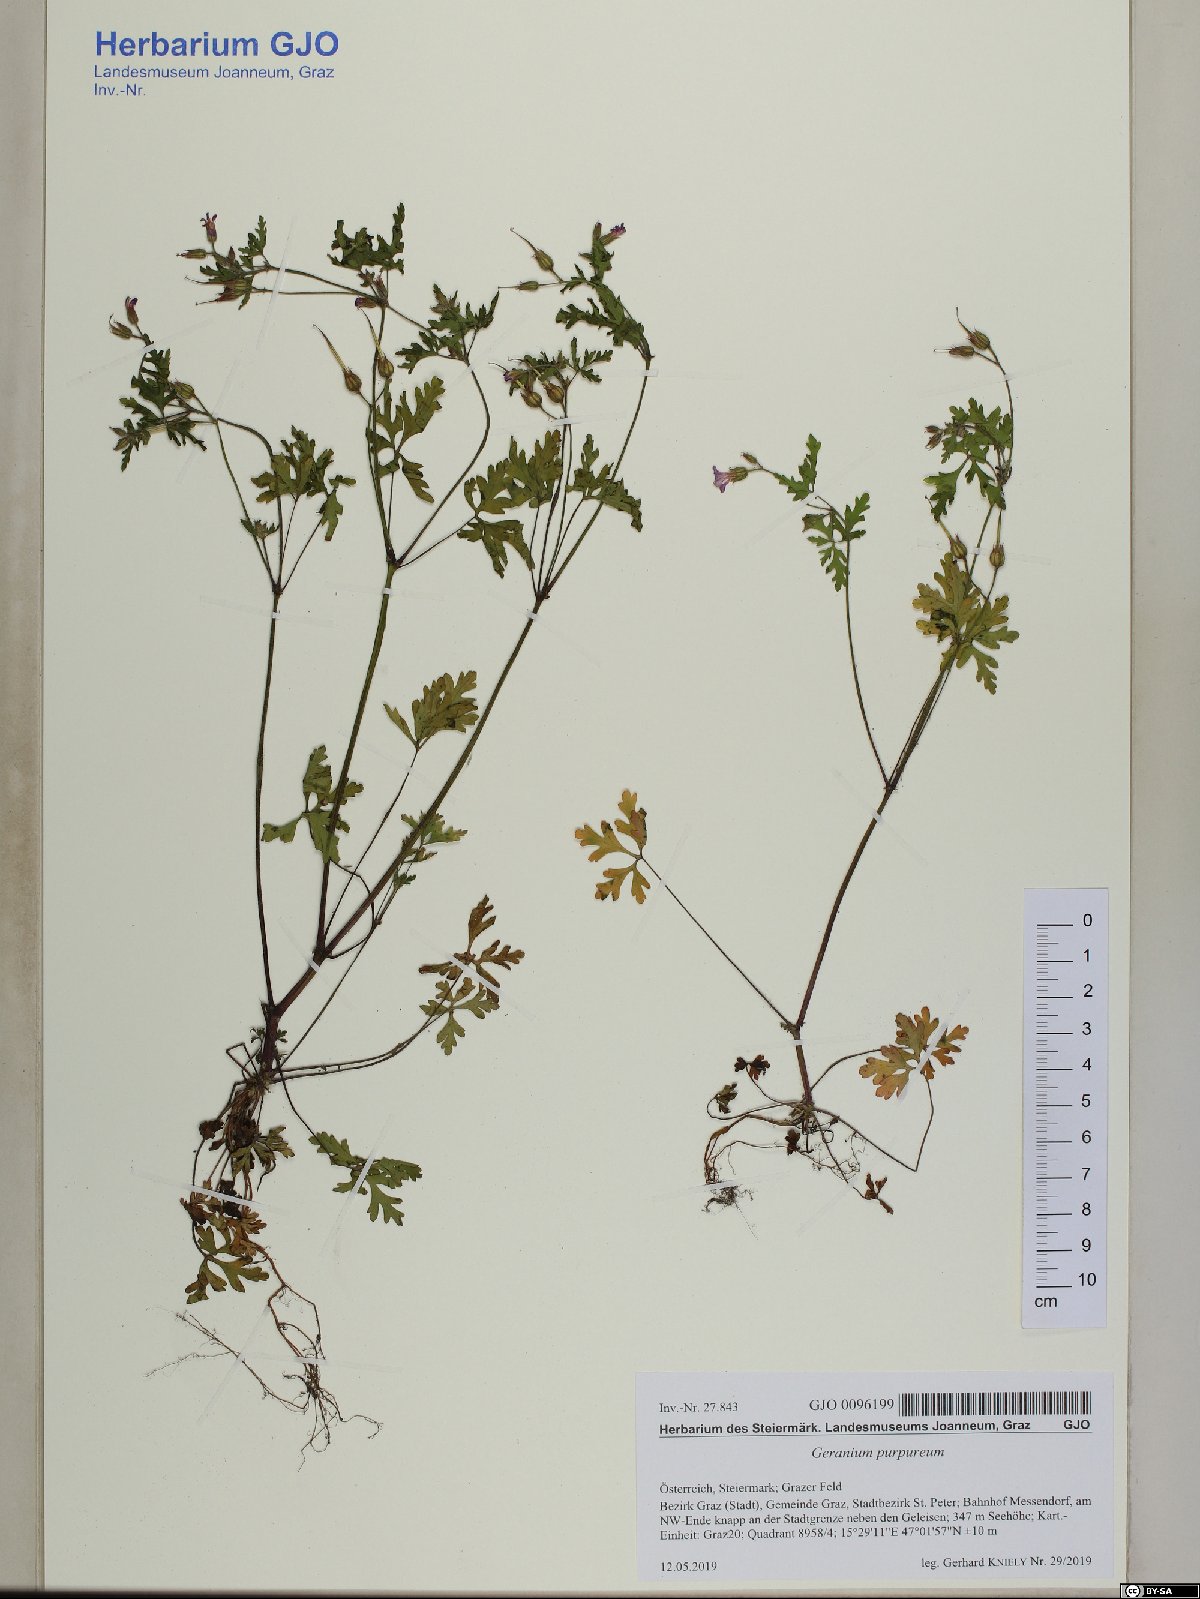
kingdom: Plantae
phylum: Tracheophyta
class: Magnoliopsida
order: Geraniales
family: Geraniaceae
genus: Geranium
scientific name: Geranium purpureum
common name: Little-robin
